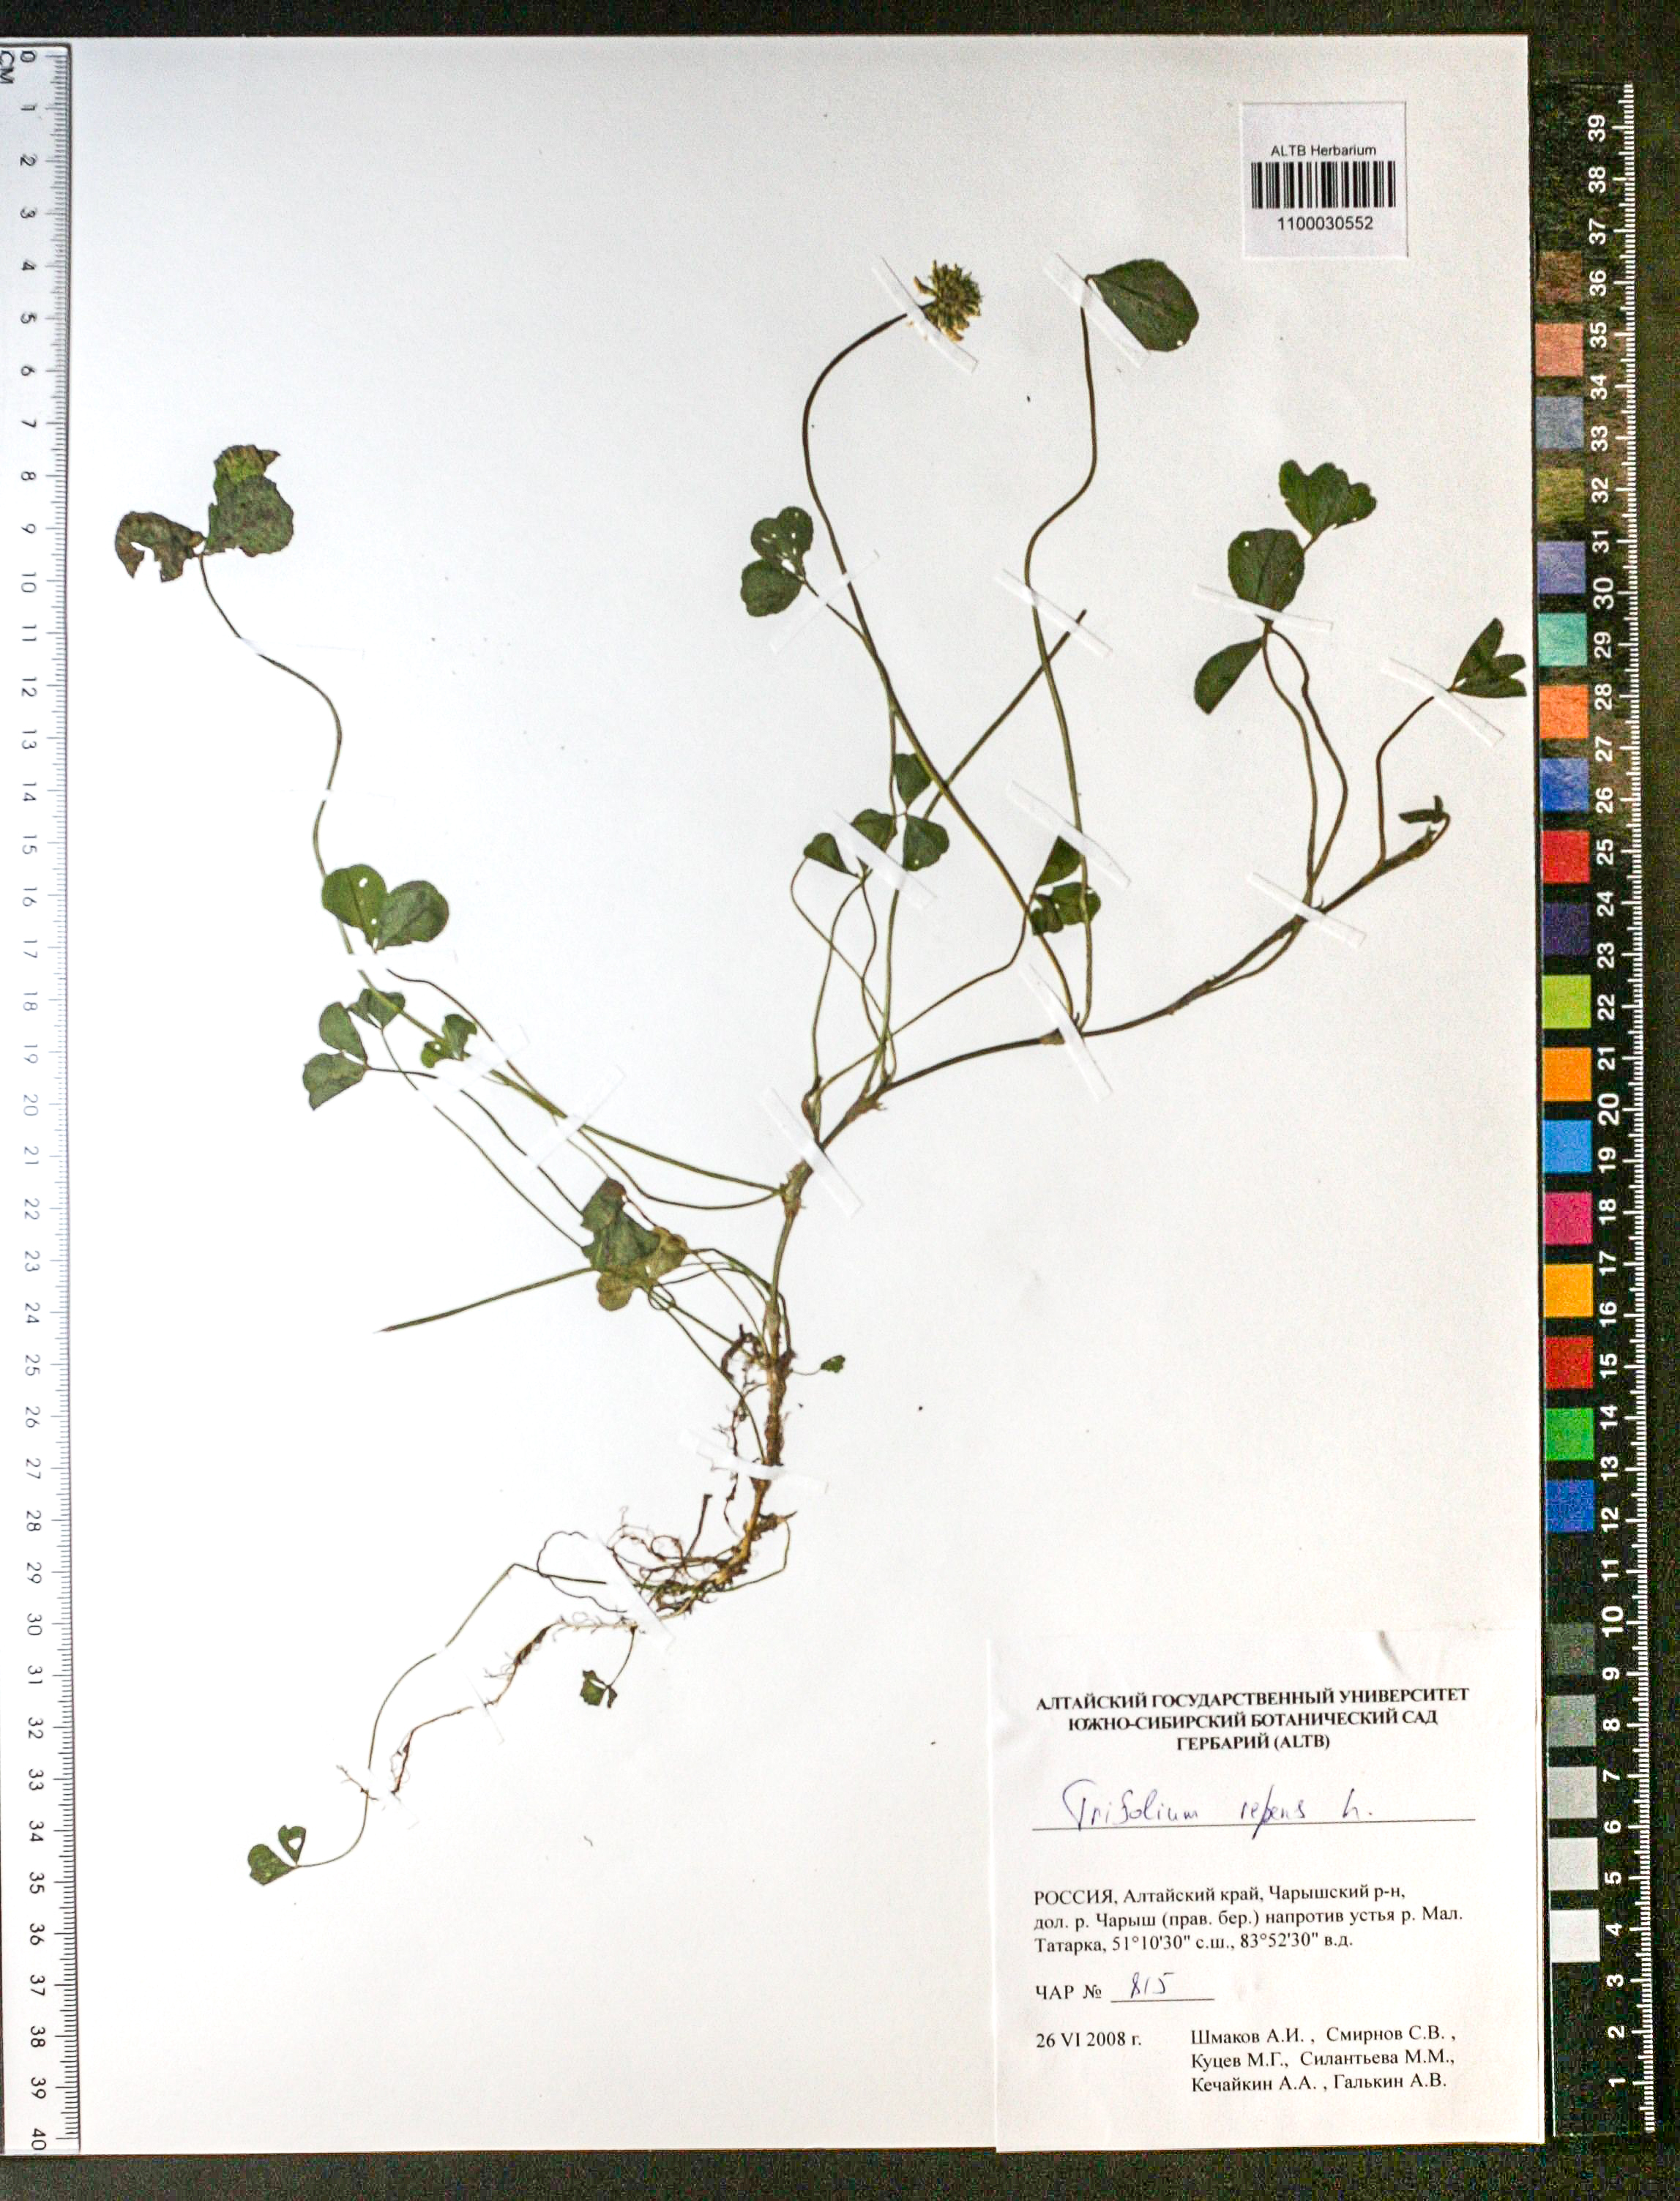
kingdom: Plantae
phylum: Tracheophyta
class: Magnoliopsida
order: Fabales
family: Fabaceae
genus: Trifolium
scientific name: Trifolium repens
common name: White clover
